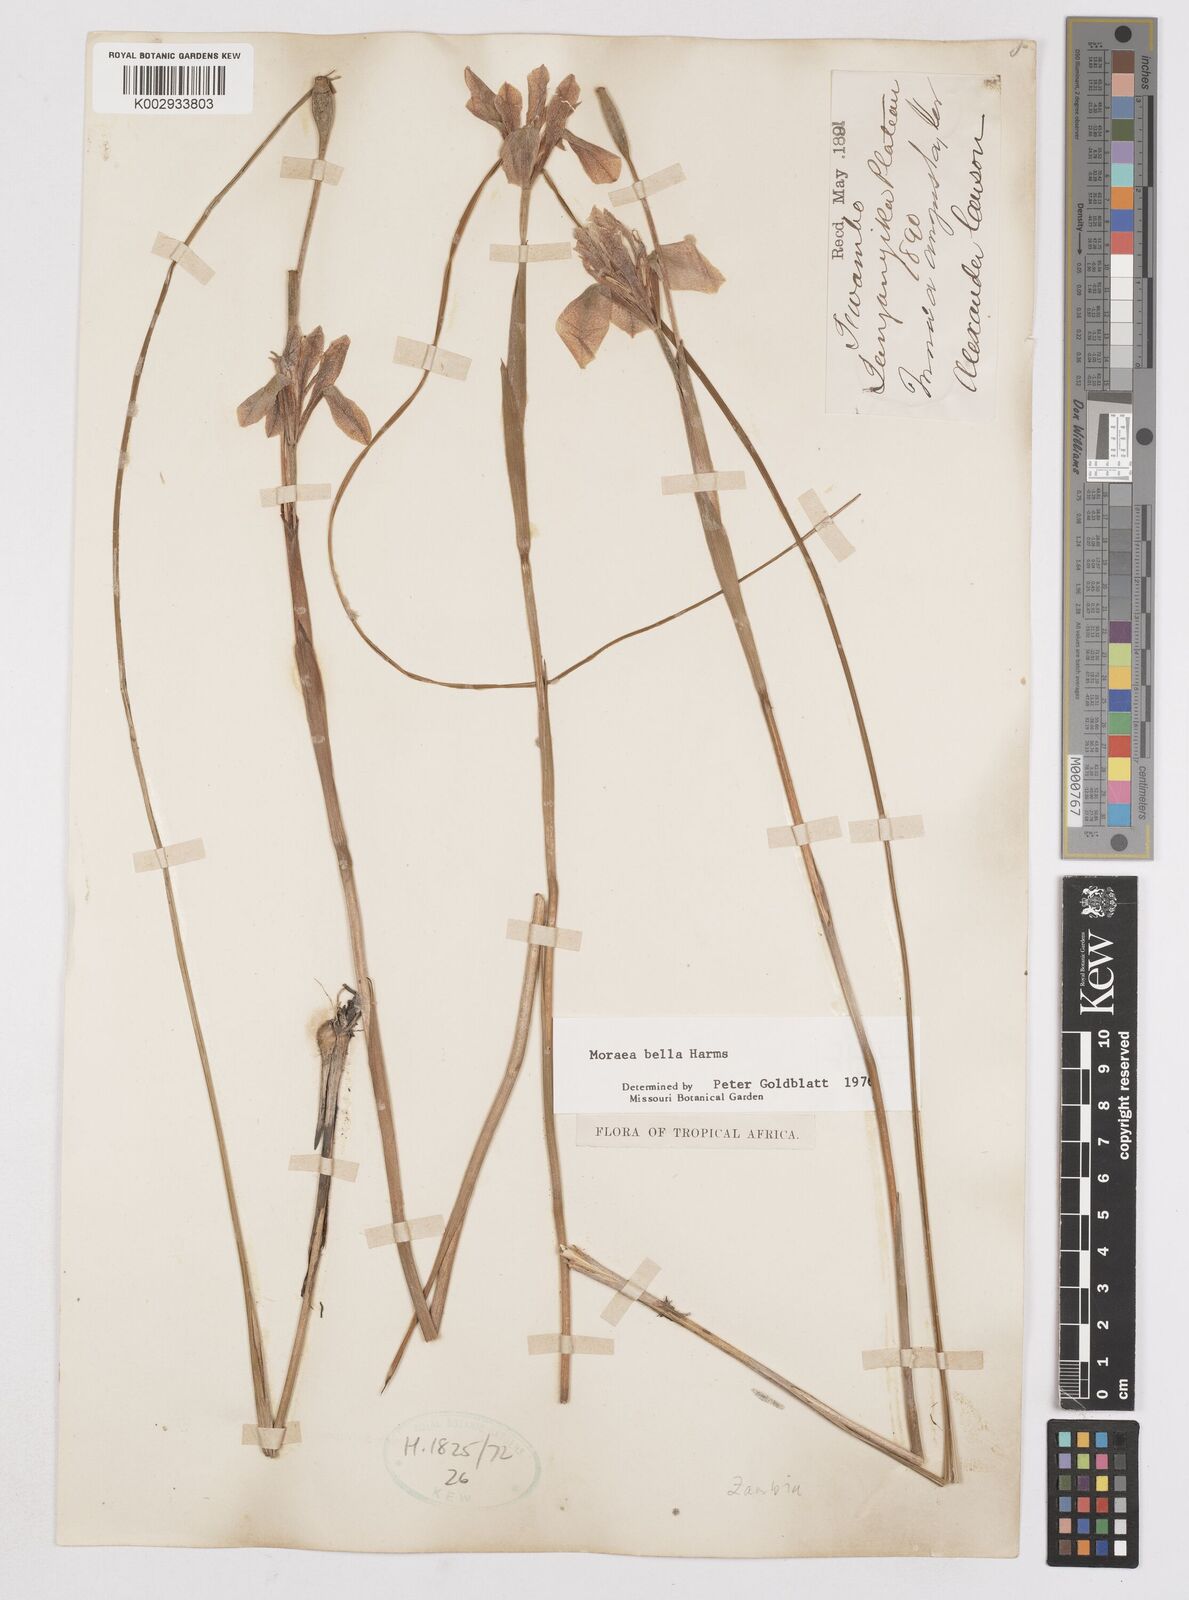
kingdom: Plantae
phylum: Tracheophyta
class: Liliopsida
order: Asparagales
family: Iridaceae
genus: Moraea
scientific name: Moraea bella
